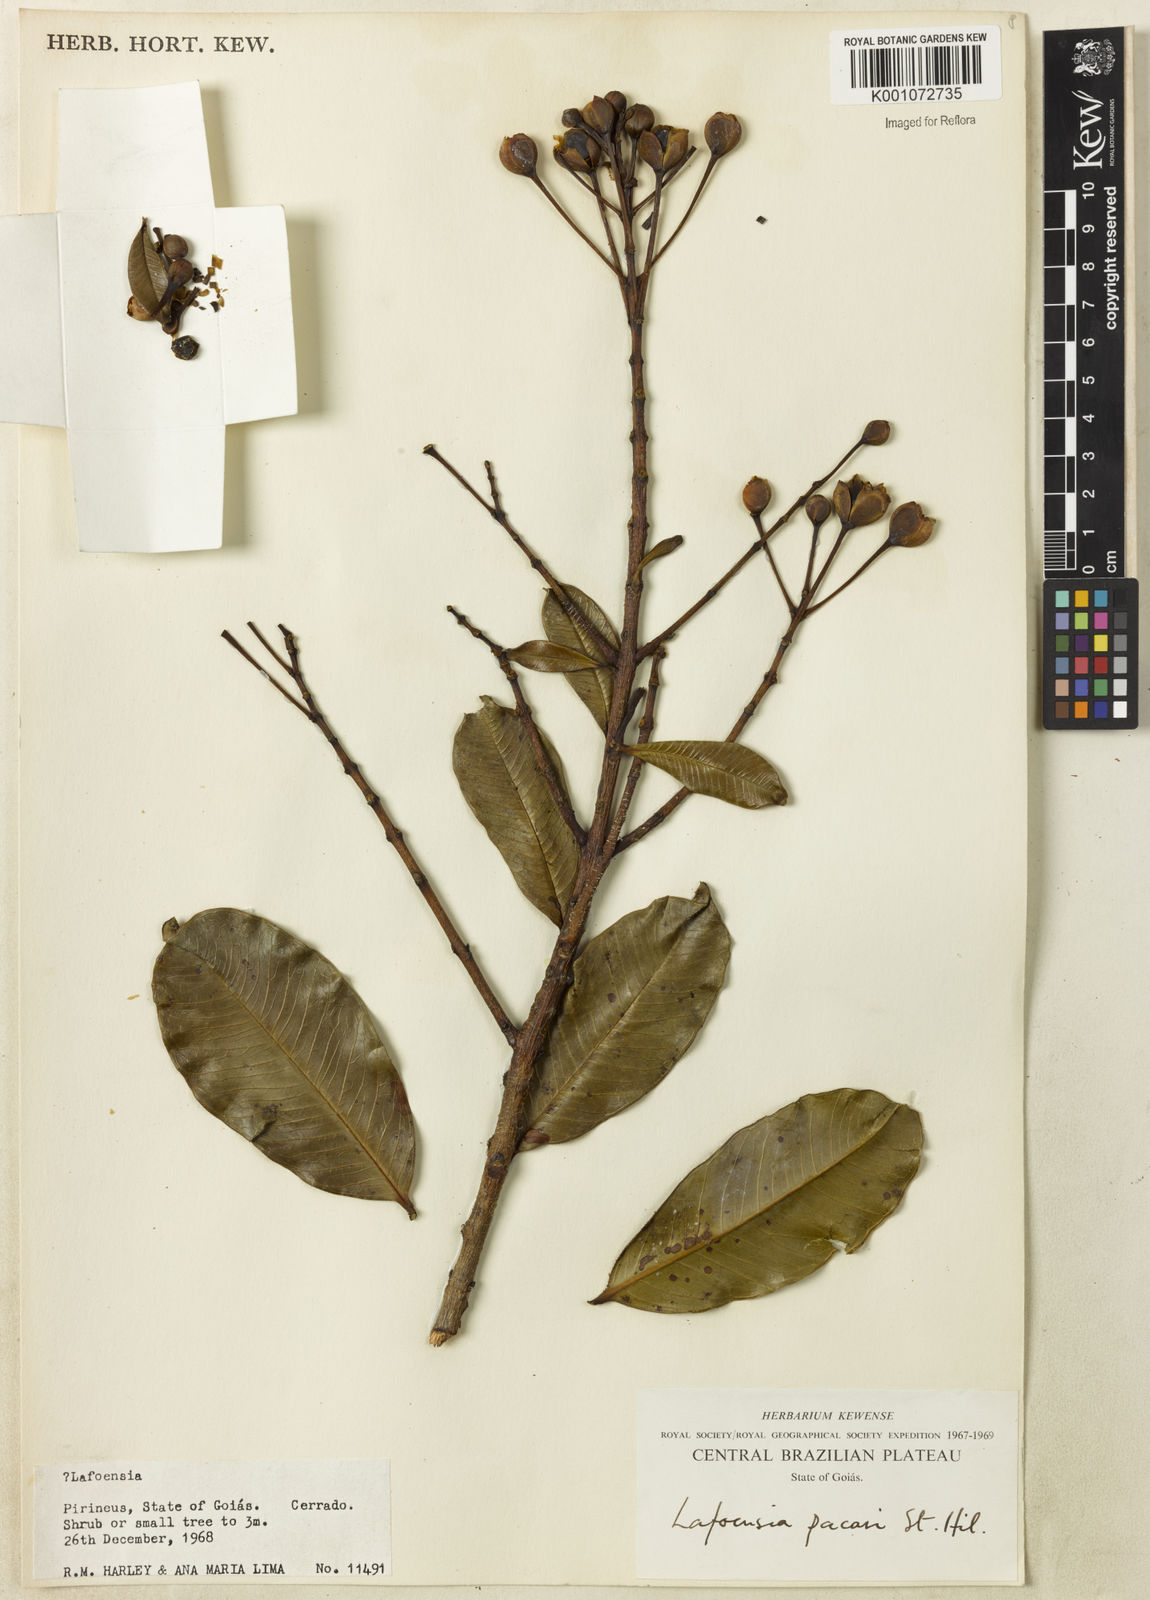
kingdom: Plantae
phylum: Tracheophyta
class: Magnoliopsida
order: Myrtales
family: Lythraceae
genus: Lafoensia
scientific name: Lafoensia pacari
